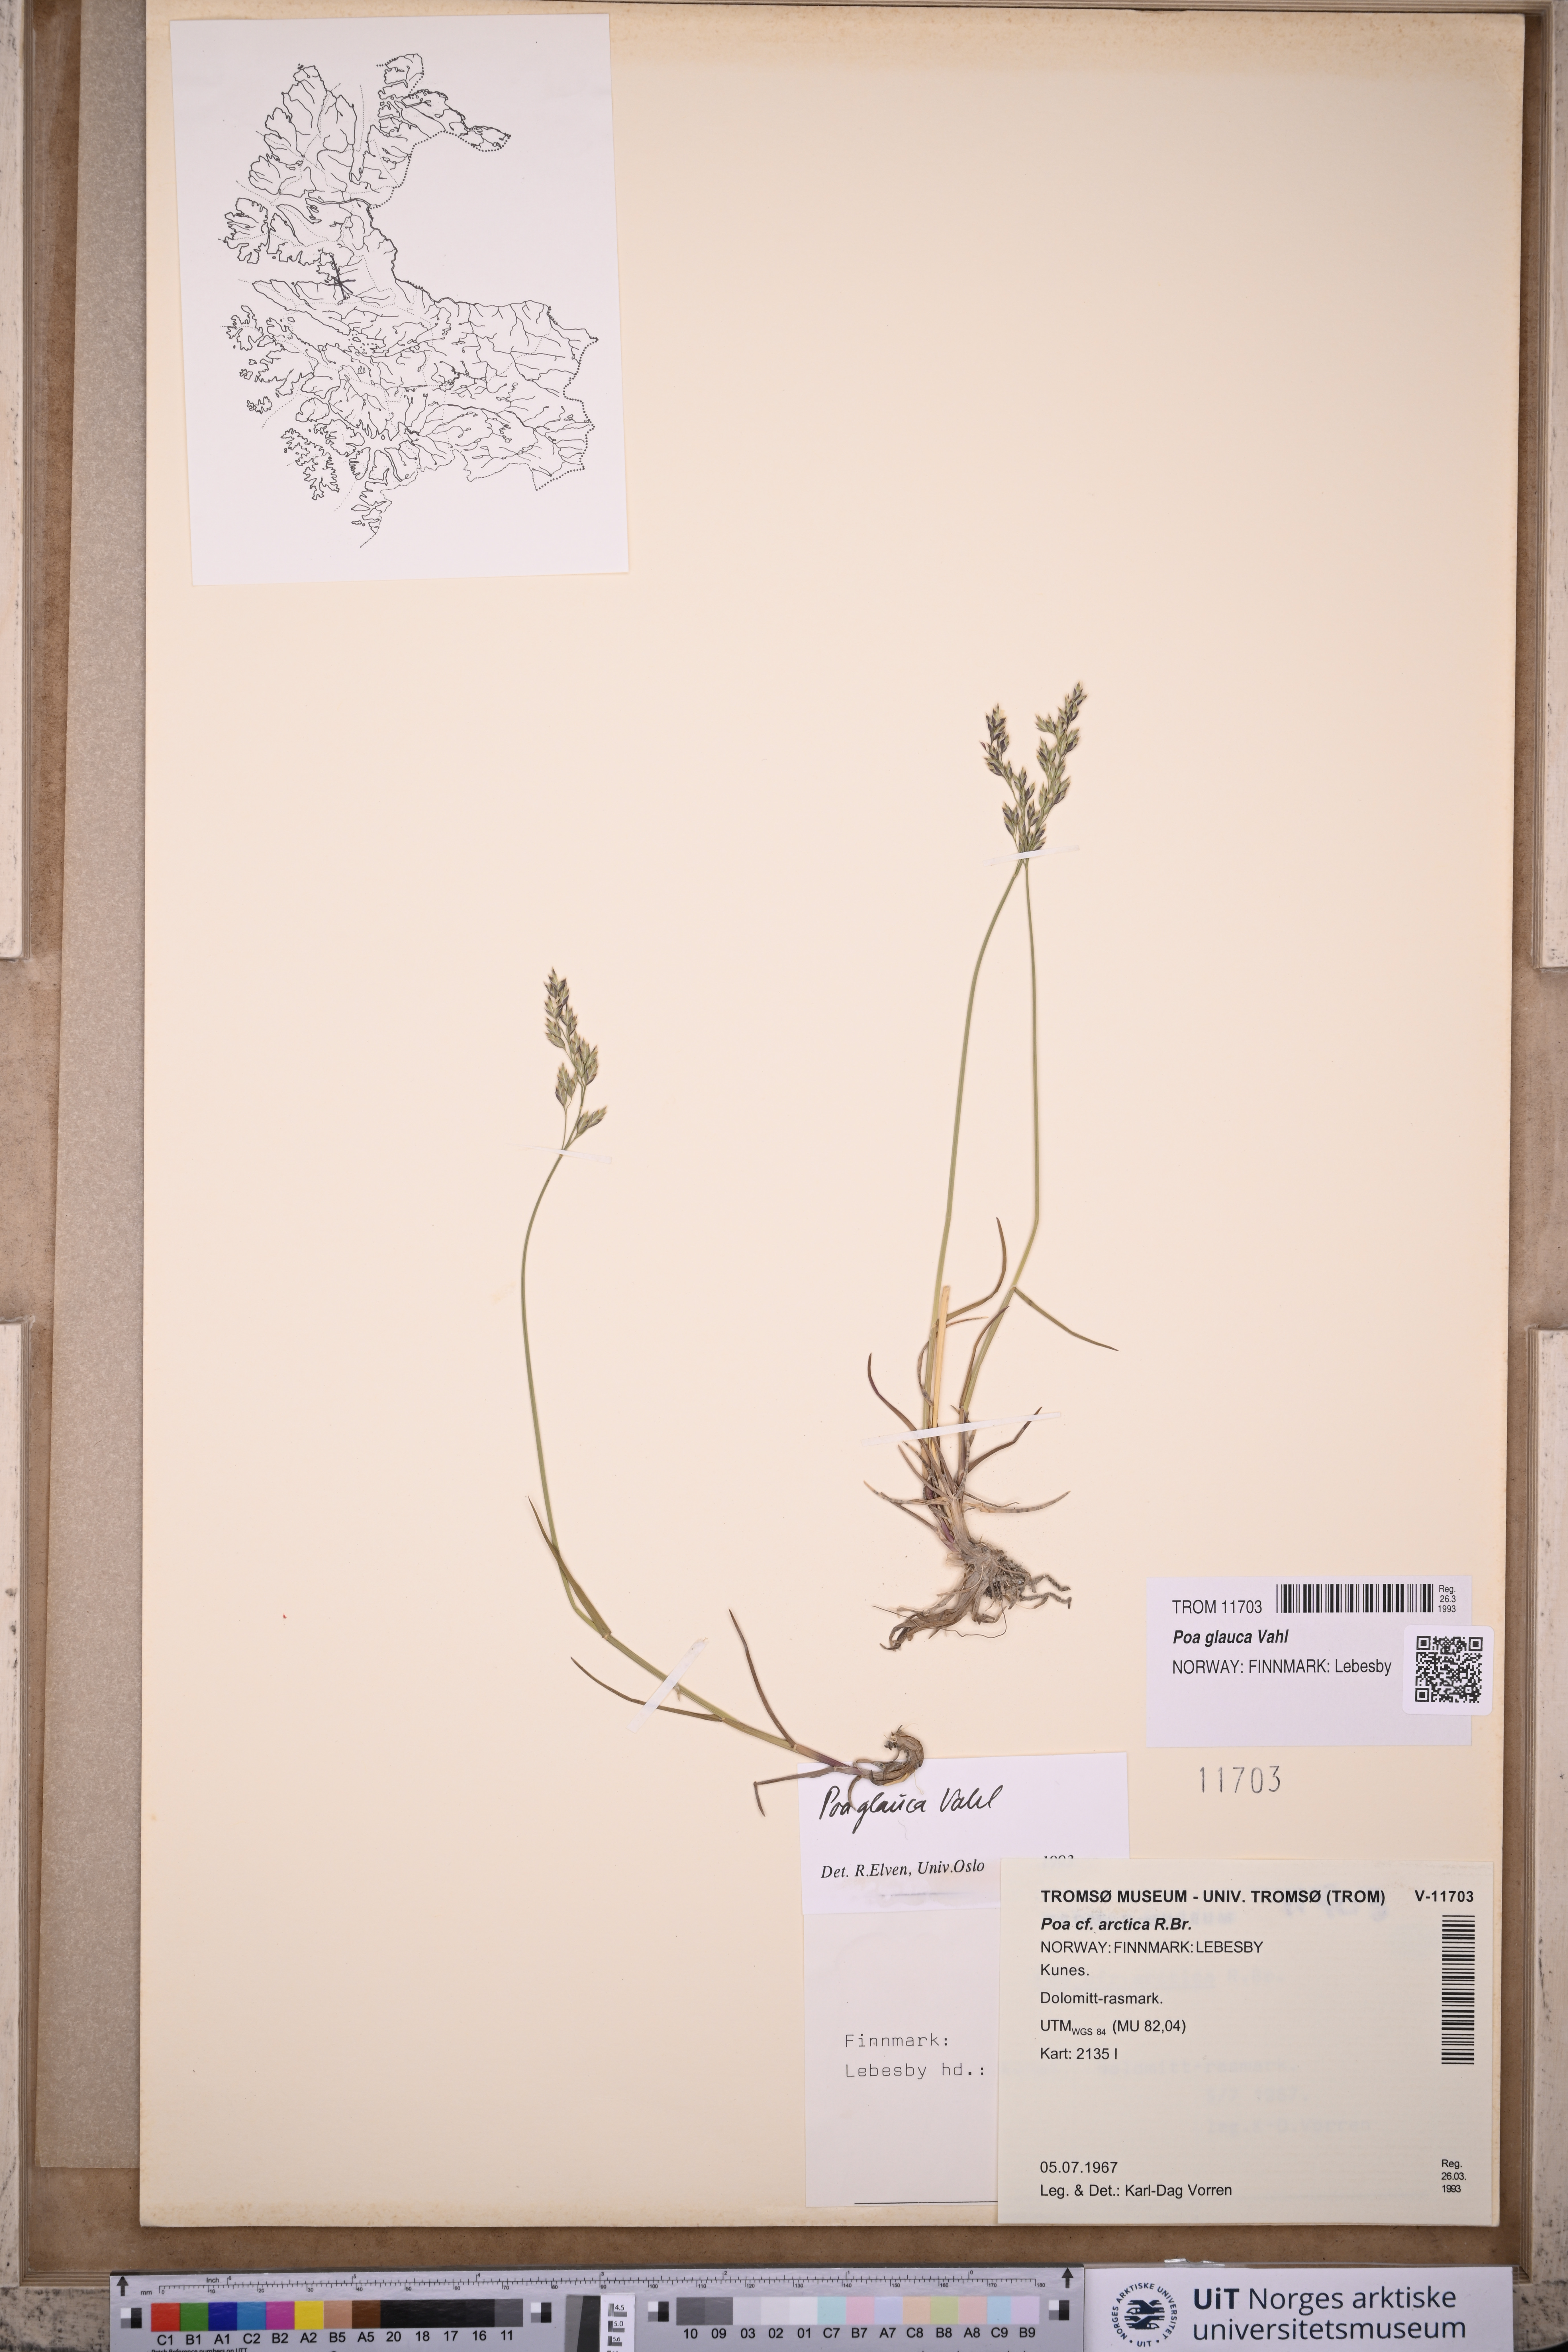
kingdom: Plantae
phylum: Tracheophyta
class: Liliopsida
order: Poales
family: Poaceae
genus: Poa
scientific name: Poa glauca
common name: Glaucous bluegrass
